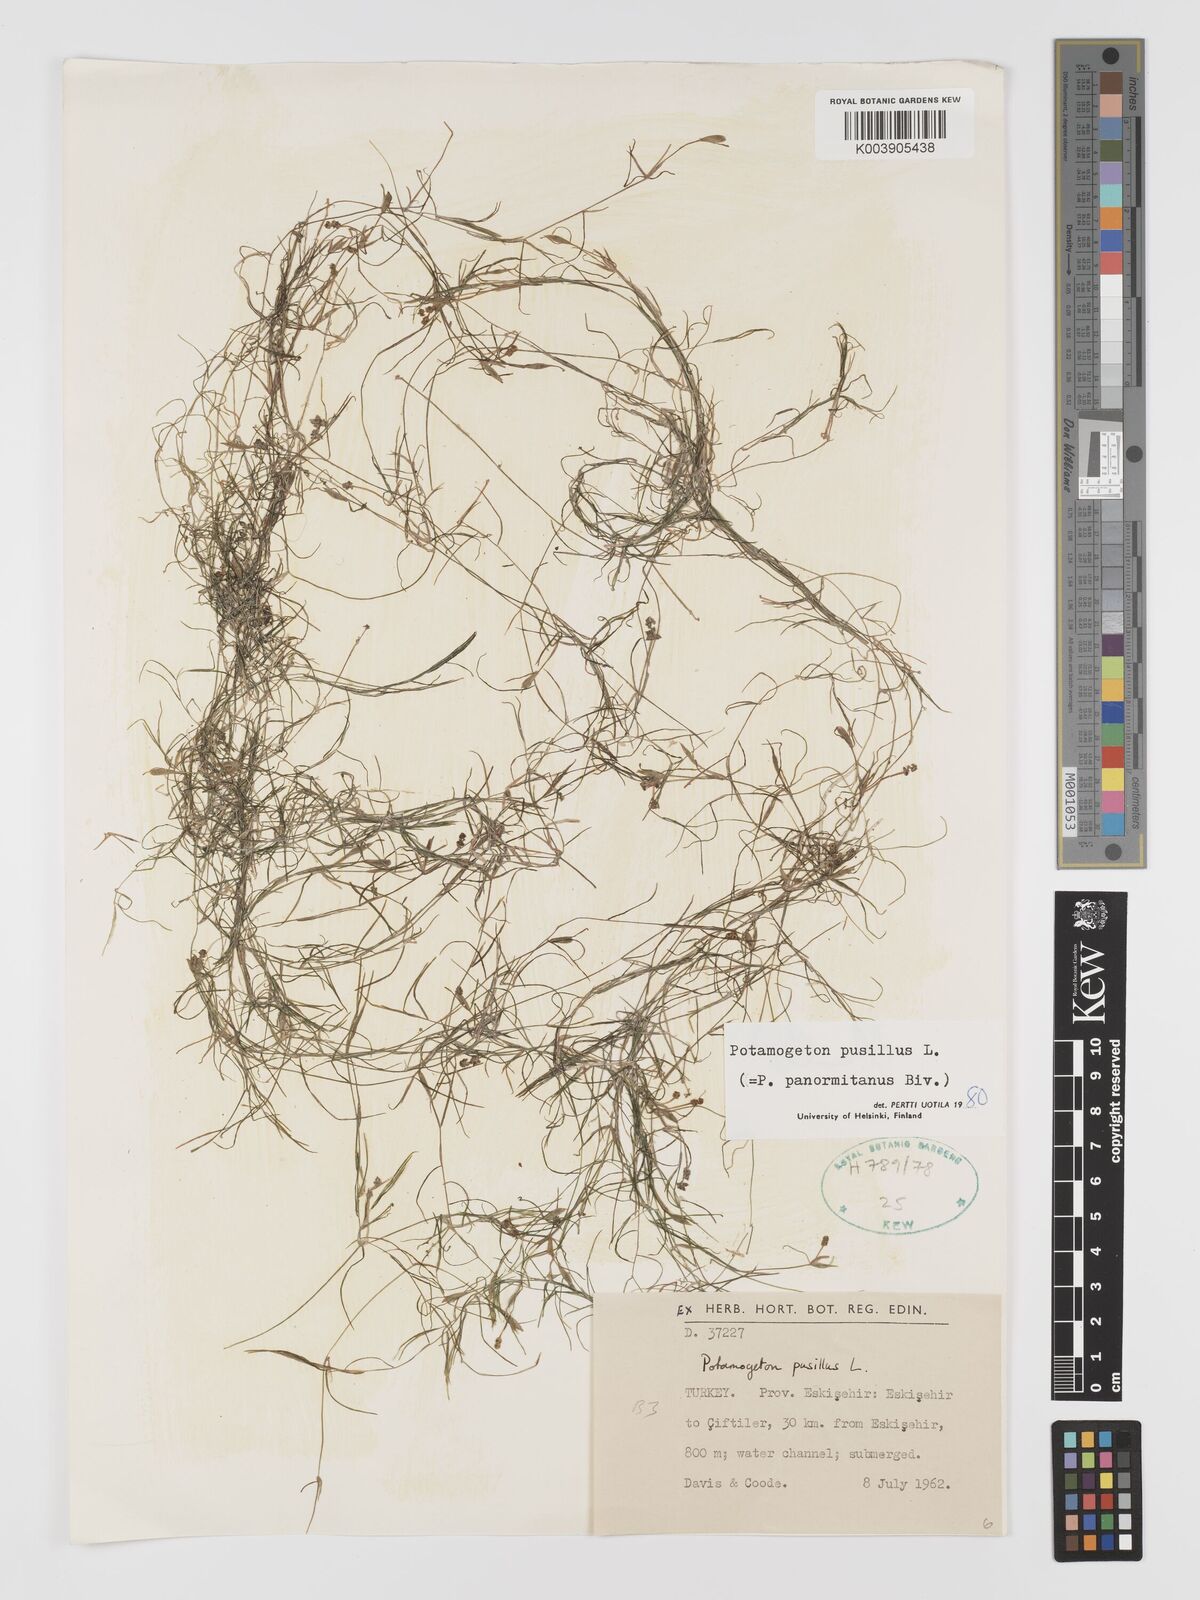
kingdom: Plantae
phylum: Tracheophyta
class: Liliopsida
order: Alismatales
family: Potamogetonaceae
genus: Potamogeton
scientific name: Potamogeton pusillus
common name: Lesser pondweed
